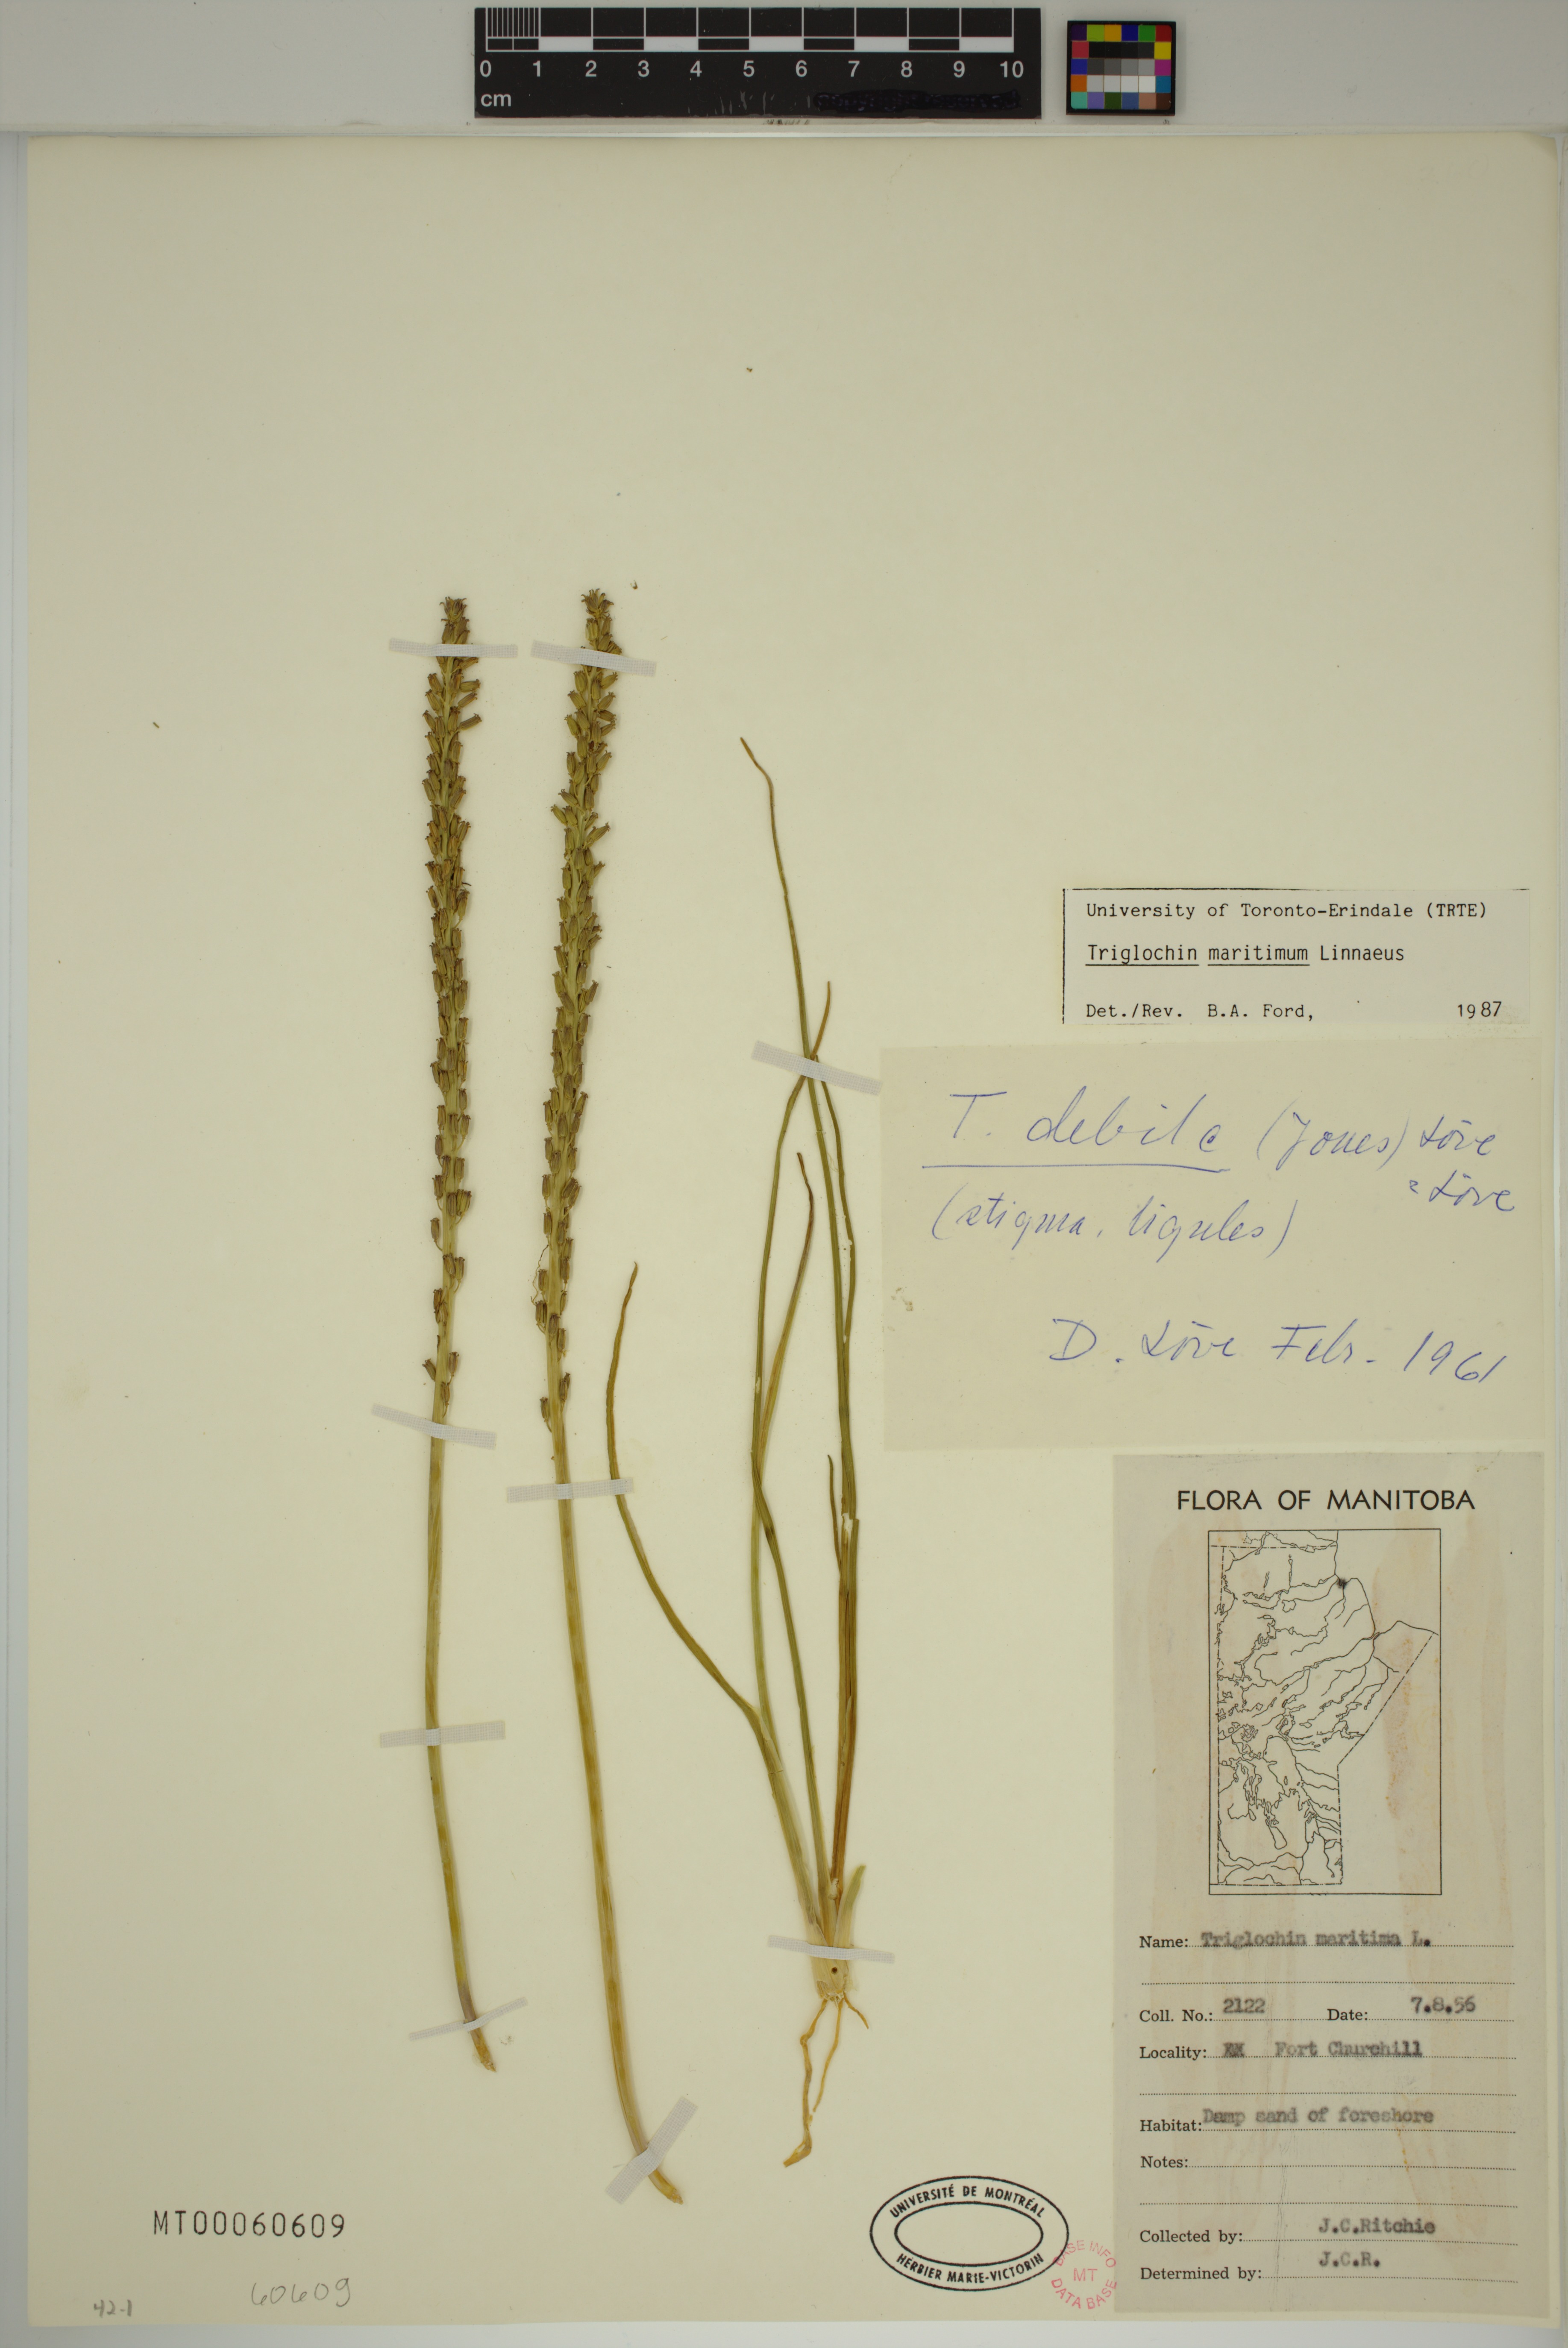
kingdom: Plantae
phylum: Tracheophyta
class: Liliopsida
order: Alismatales
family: Juncaginaceae
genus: Triglochin
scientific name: Triglochin maritima
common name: Sea arrowgrass
